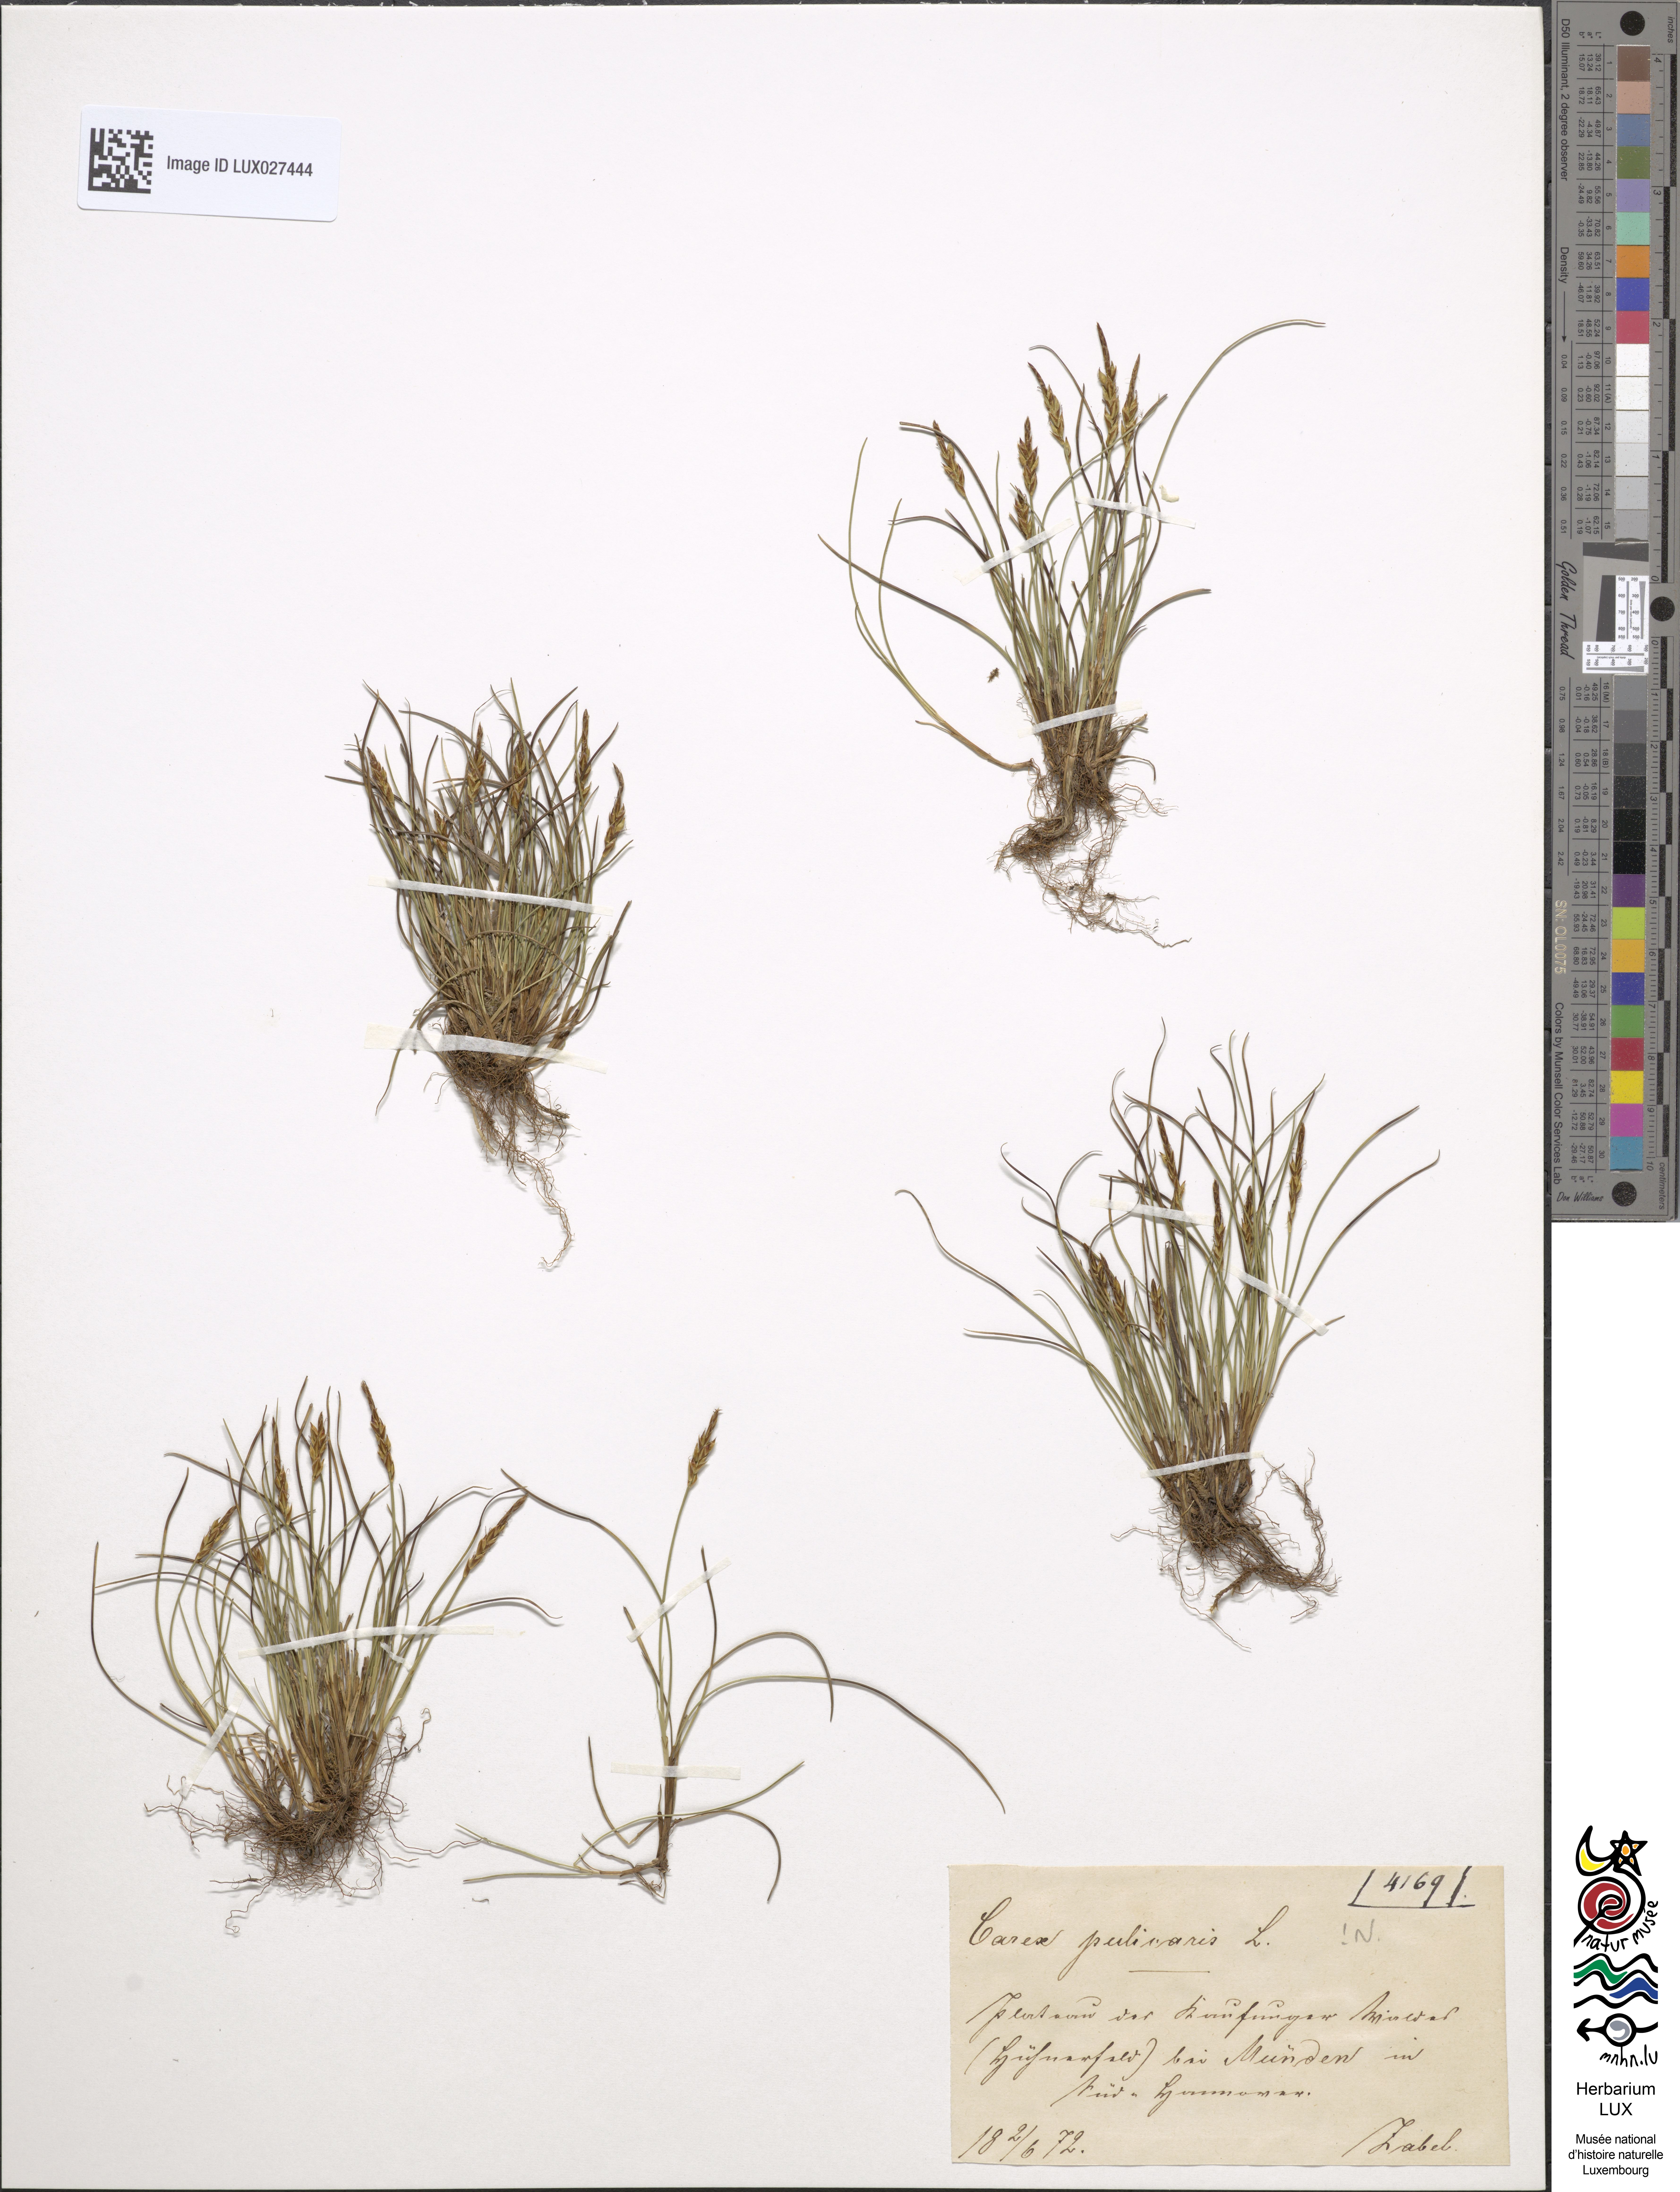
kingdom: Plantae
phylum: Tracheophyta
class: Liliopsida
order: Poales
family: Cyperaceae
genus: Carex
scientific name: Carex pulicaris
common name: Flea sedge
